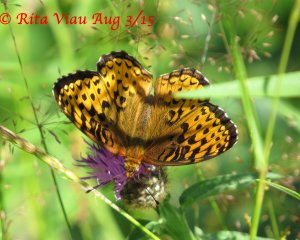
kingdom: Animalia
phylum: Arthropoda
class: Insecta
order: Lepidoptera
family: Nymphalidae
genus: Speyeria
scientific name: Speyeria atlantis
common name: Atlantis Fritillary
